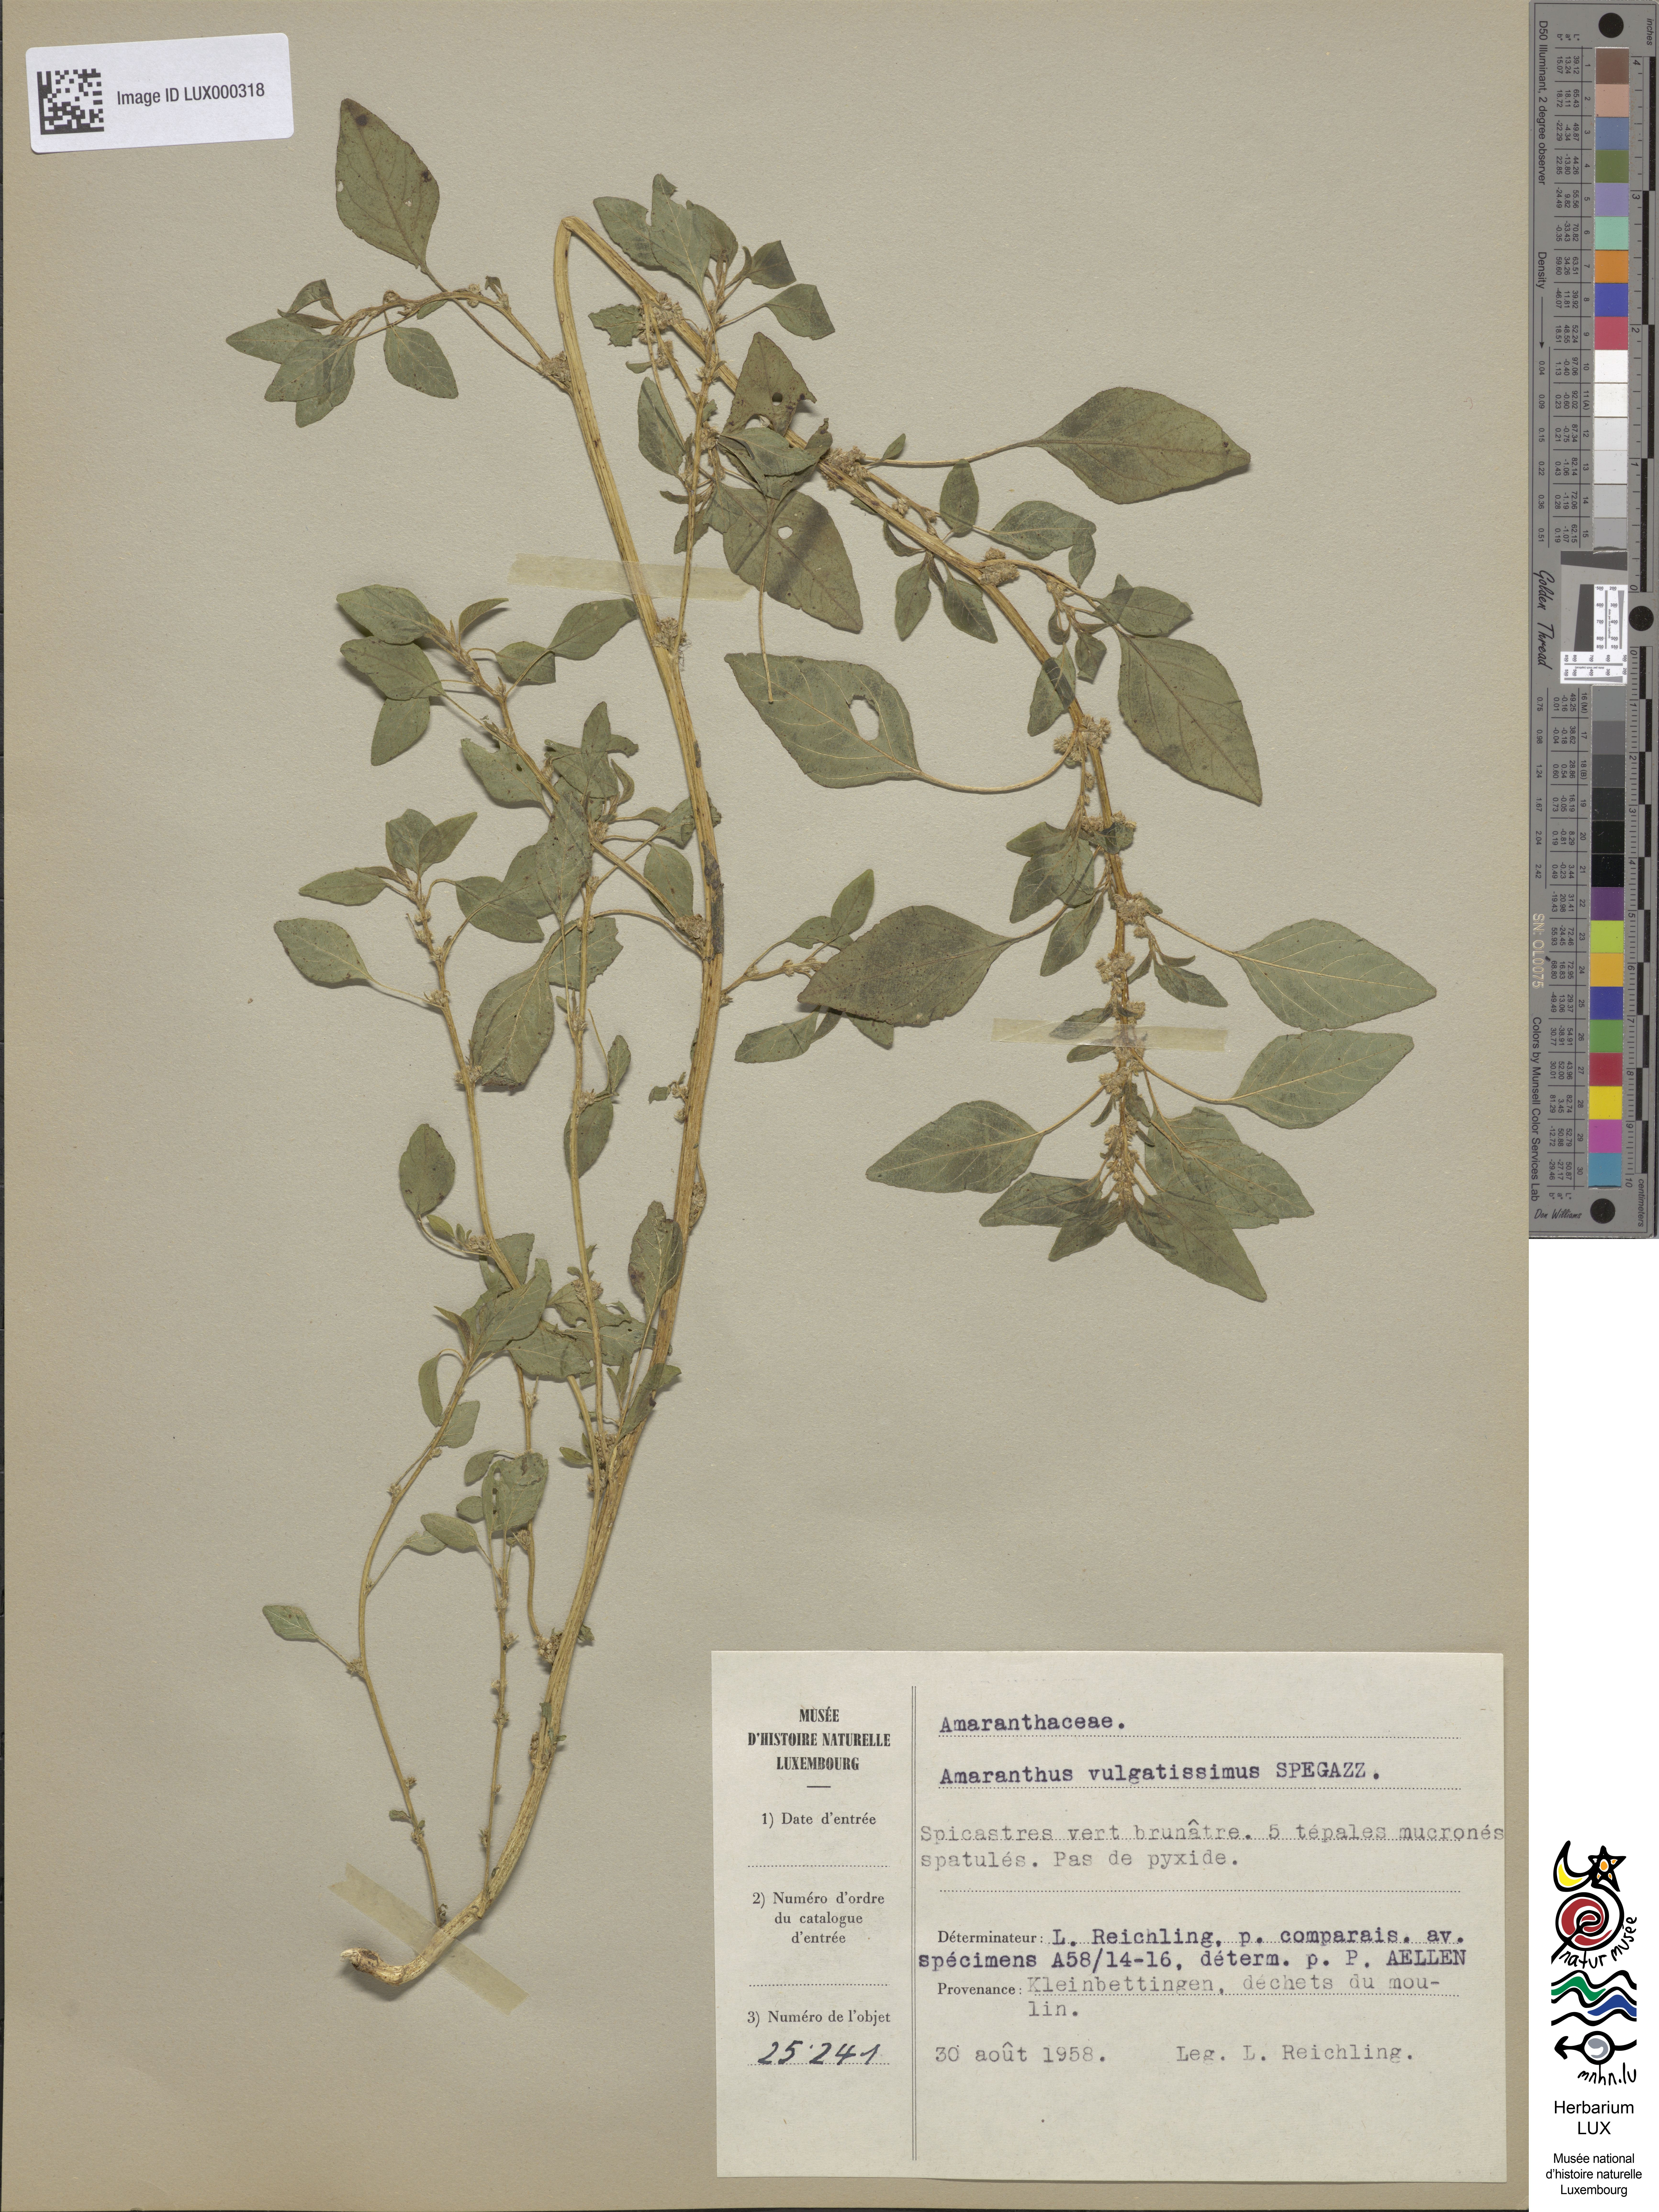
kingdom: Plantae
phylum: Tracheophyta
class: Magnoliopsida
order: Caryophyllales
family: Amaranthaceae
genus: Amaranthus
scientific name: Amaranthus vulgatissimus
